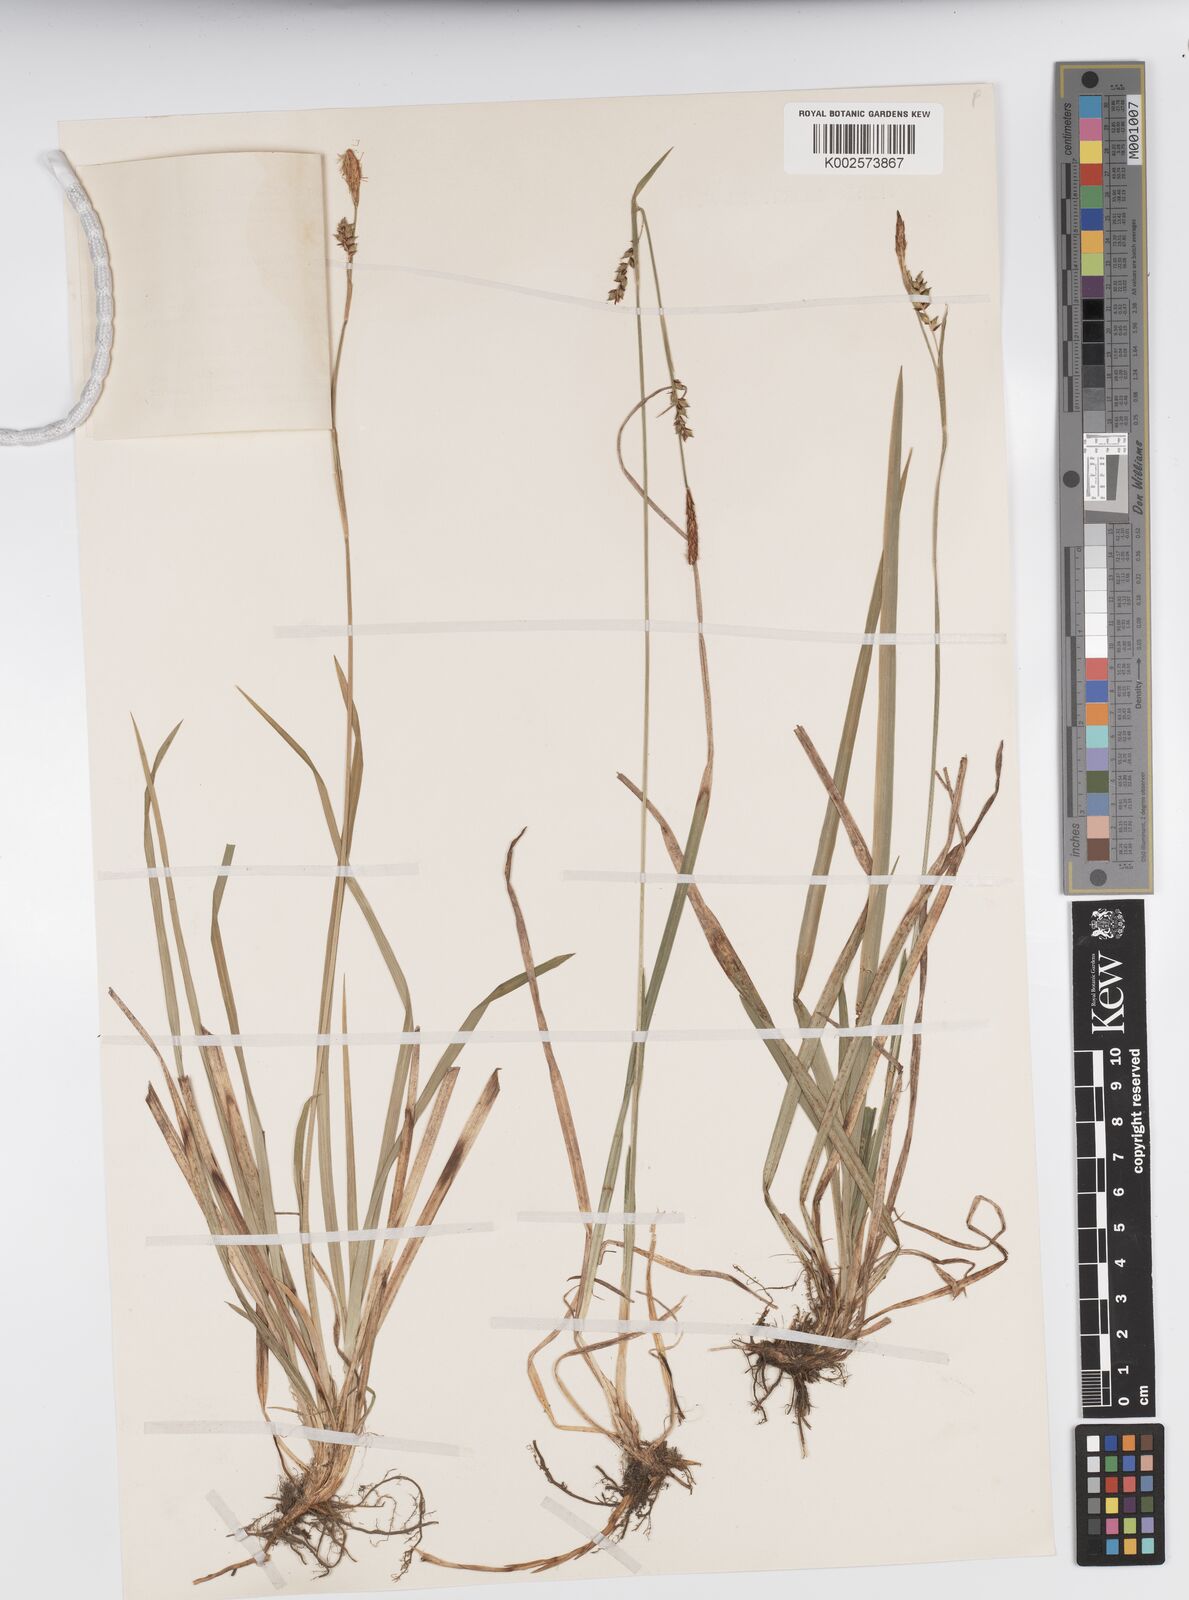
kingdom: Plantae
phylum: Tracheophyta
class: Liliopsida
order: Poales
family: Cyperaceae
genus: Carex
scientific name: Carex vaginata
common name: Sheathed sedge
